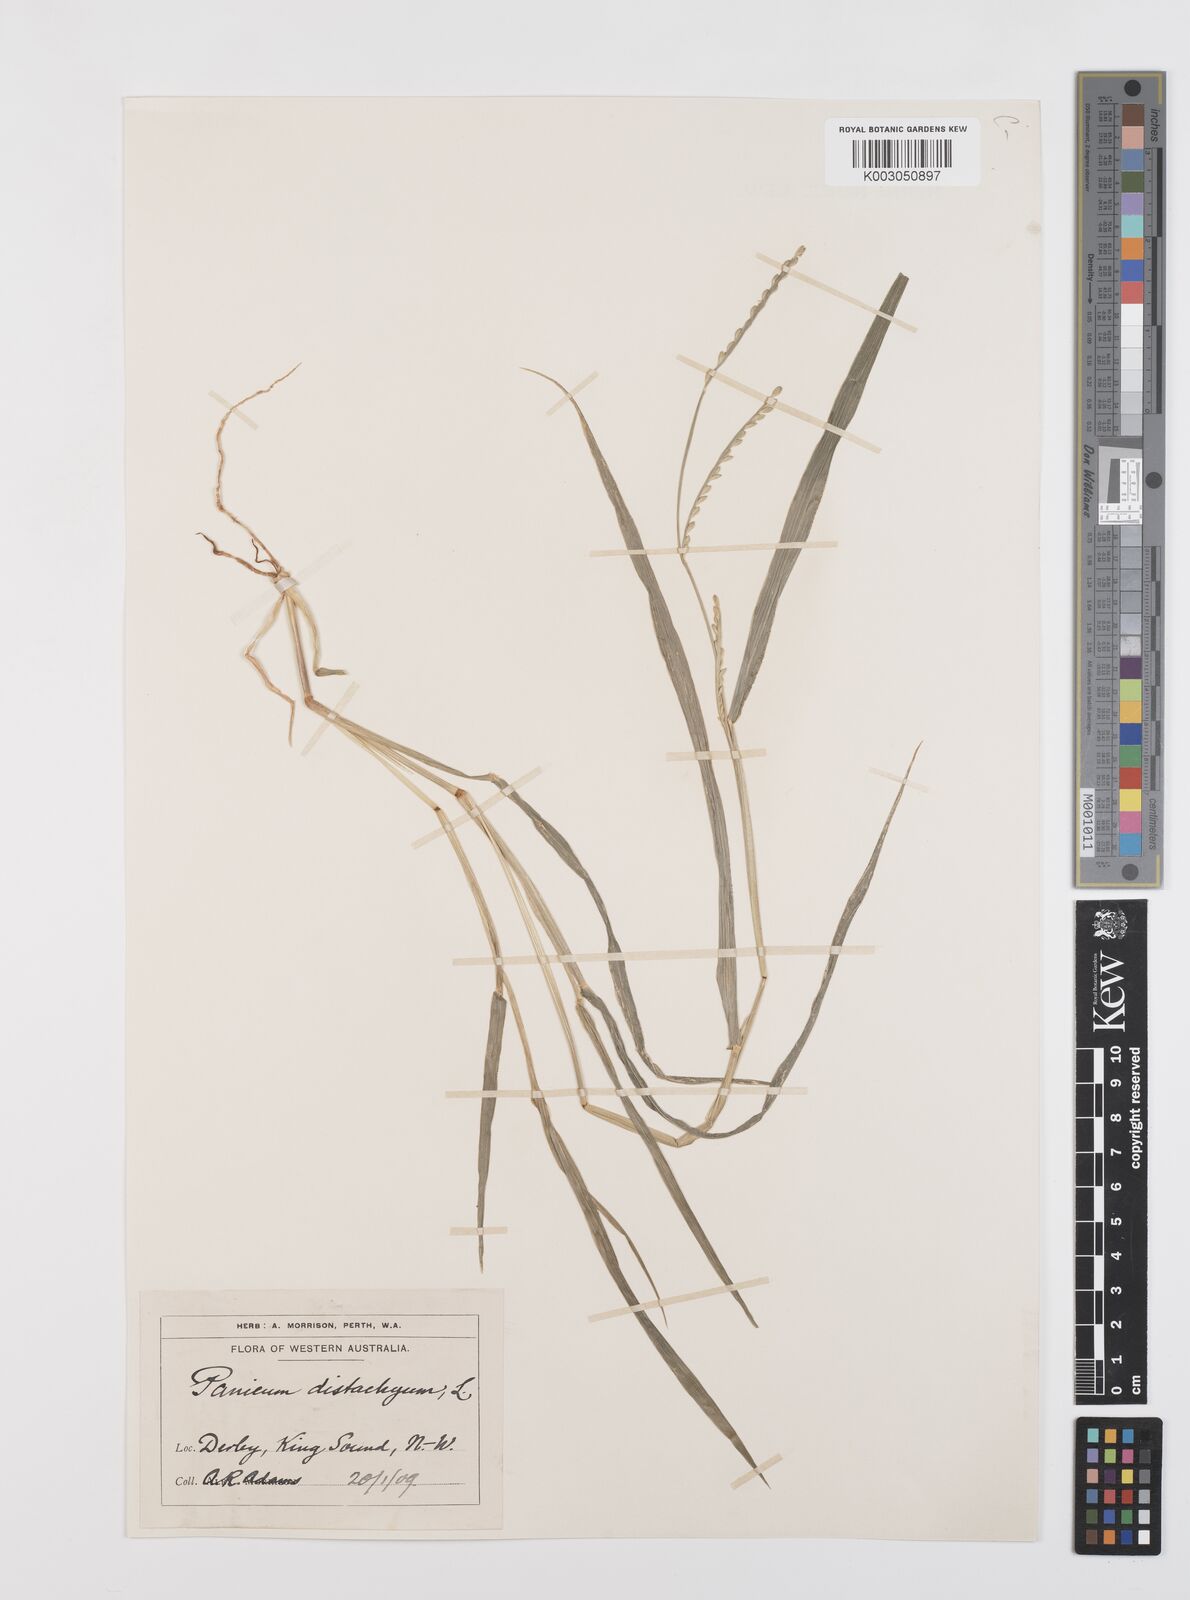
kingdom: Plantae
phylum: Tracheophyta
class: Liliopsida
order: Poales
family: Poaceae
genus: Urochloa
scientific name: Urochloa subquadripara
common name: Armgrass millet
